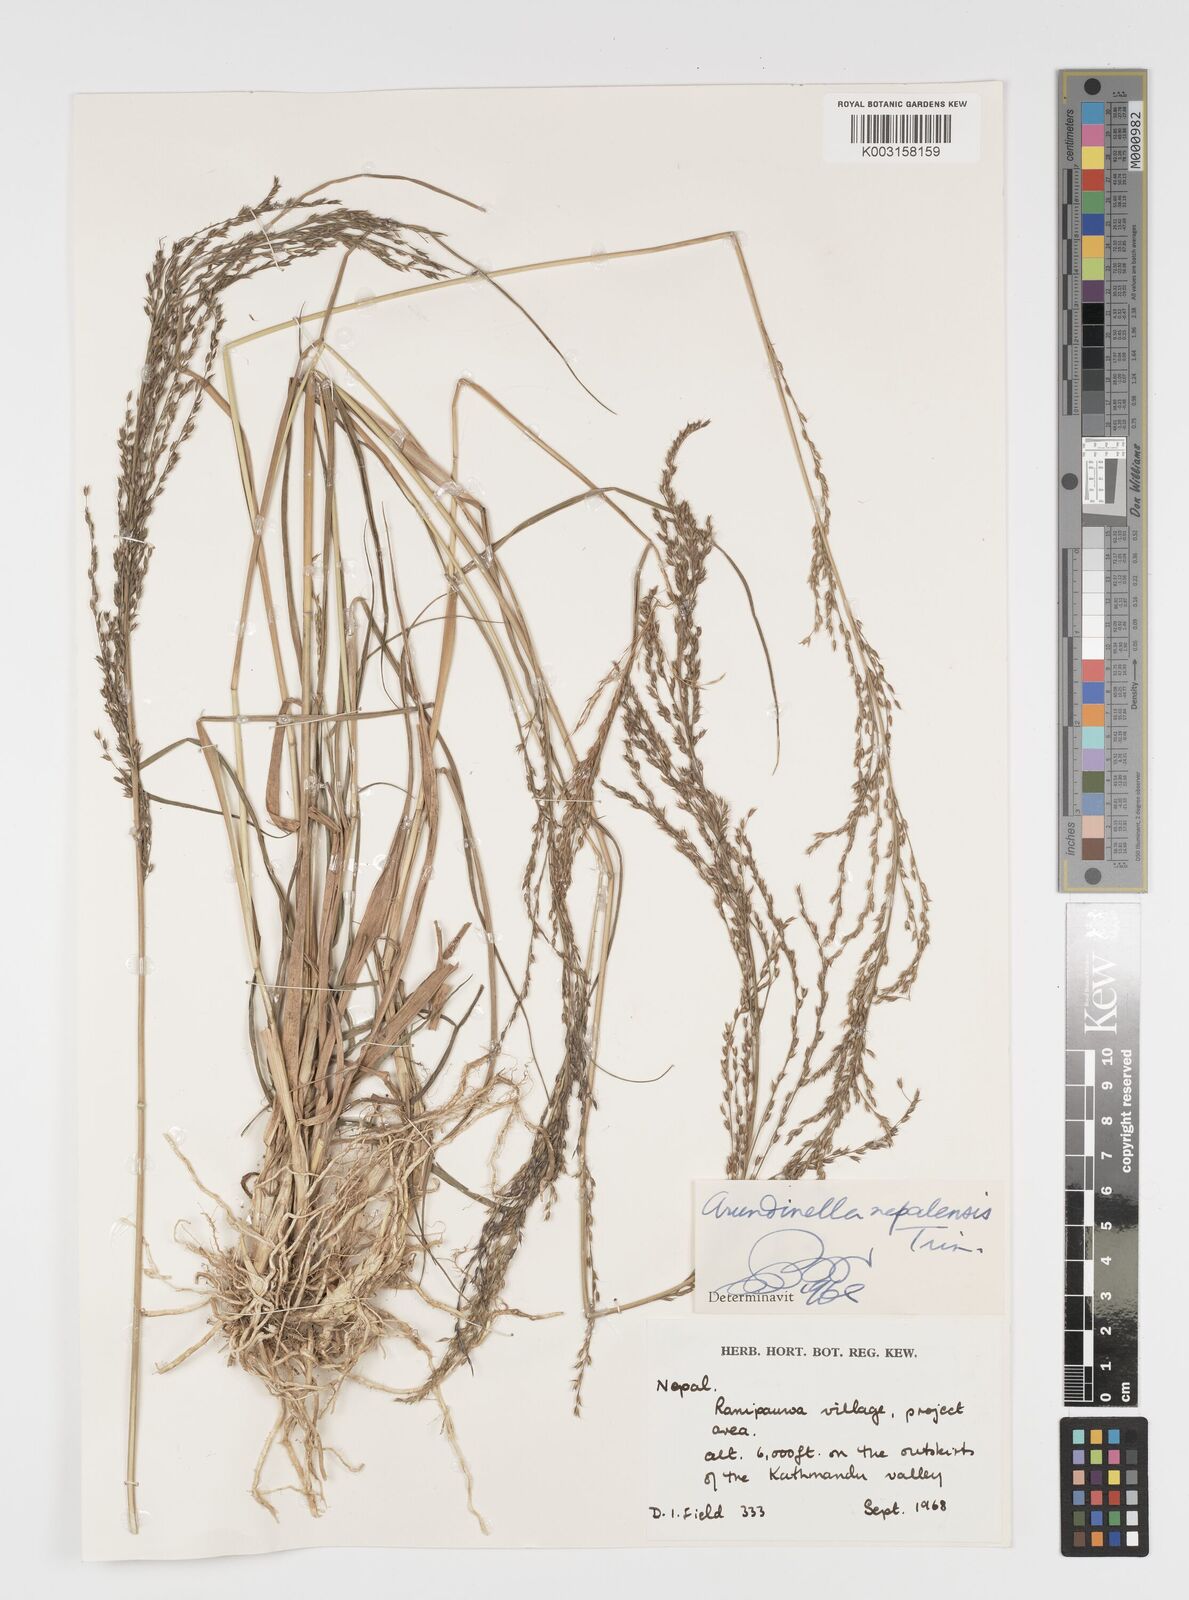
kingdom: Plantae
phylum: Tracheophyta
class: Liliopsida
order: Poales
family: Poaceae
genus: Arundinella
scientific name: Arundinella nepalensis
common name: Reed grass
